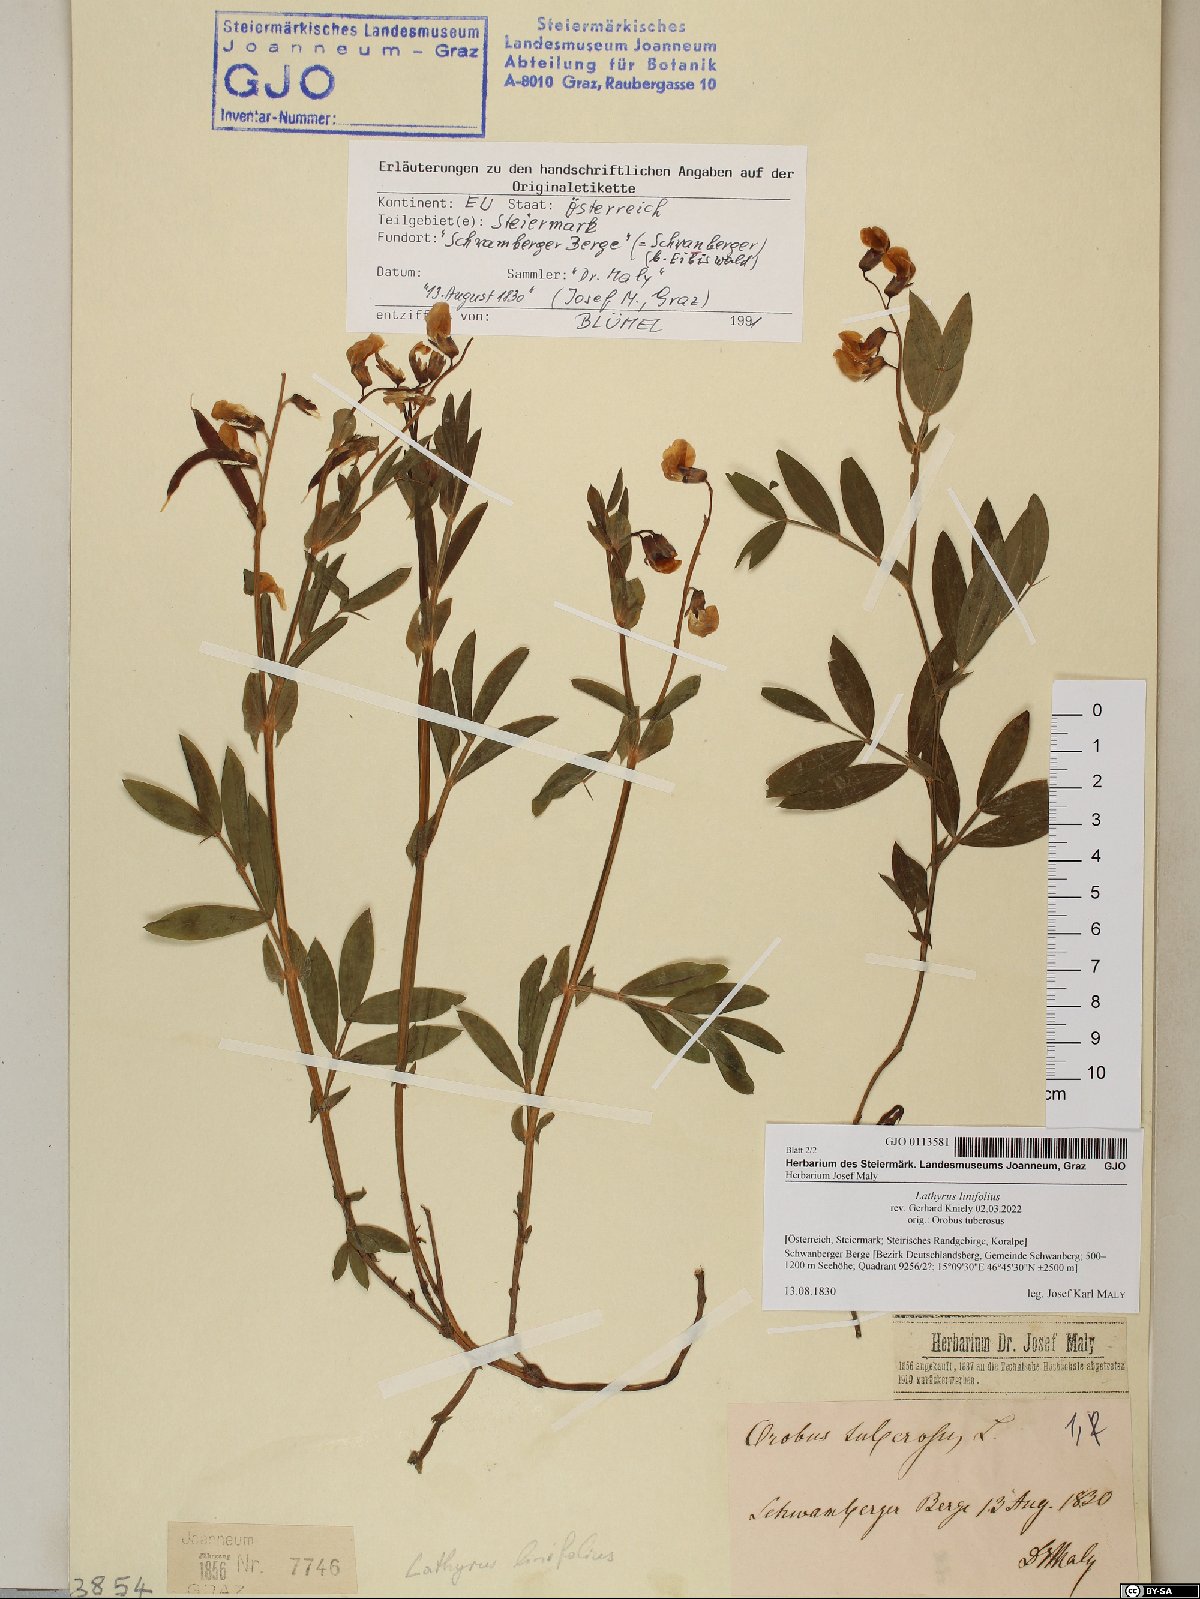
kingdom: Plantae
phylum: Tracheophyta
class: Magnoliopsida
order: Fabales
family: Fabaceae
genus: Lathyrus
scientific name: Lathyrus linifolius
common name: Bitter-vetch
